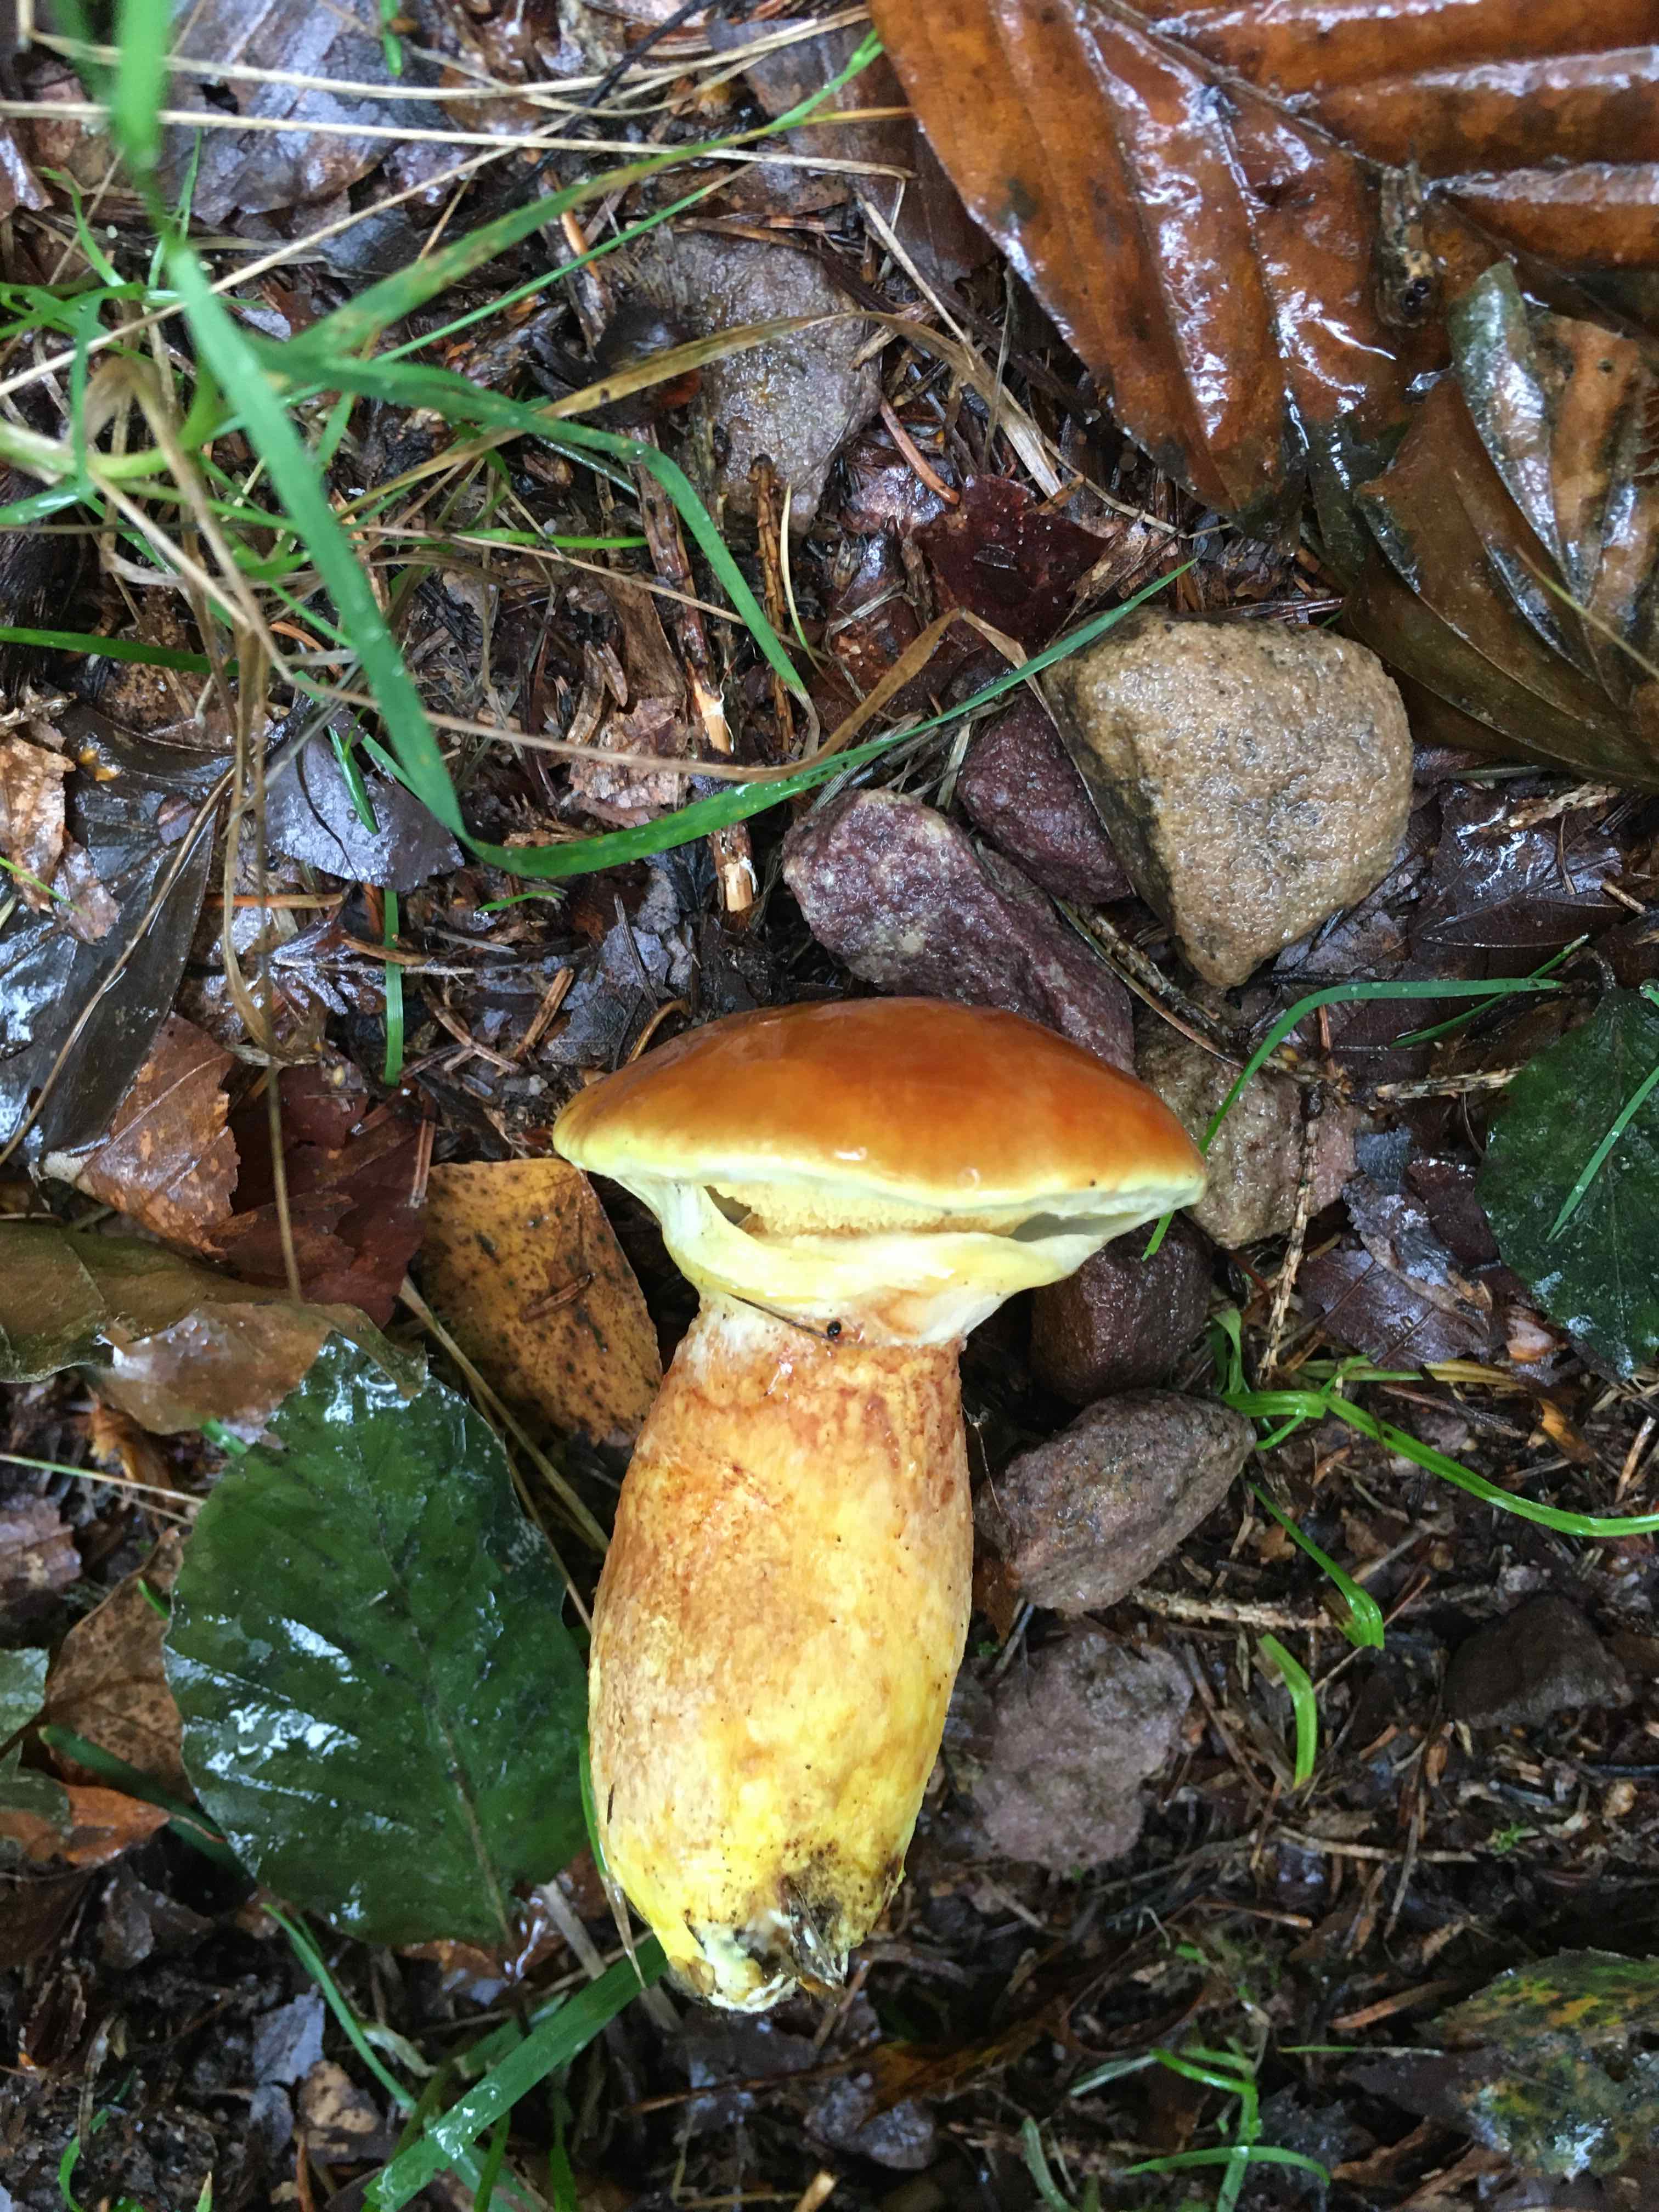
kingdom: Fungi
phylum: Basidiomycota
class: Agaricomycetes
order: Boletales
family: Suillaceae
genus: Suillus
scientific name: Suillus grevillei
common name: lærke-slimrørhat
